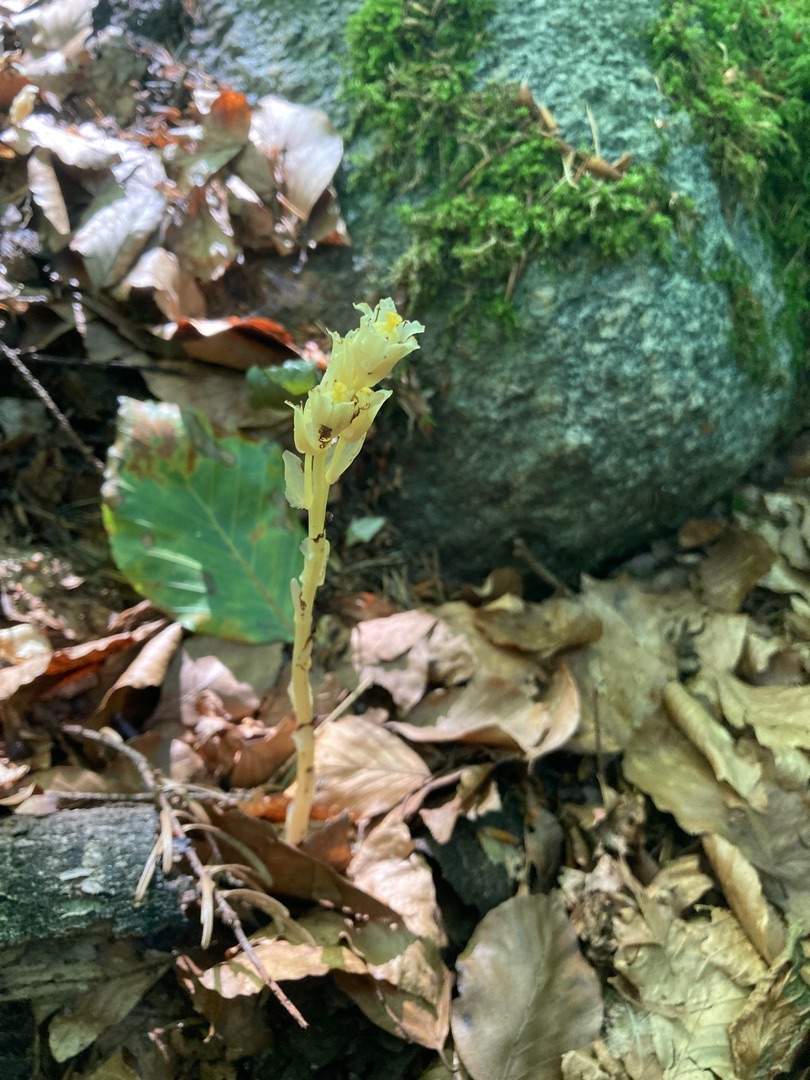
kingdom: Plantae
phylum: Tracheophyta
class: Magnoliopsida
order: Ericales
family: Ericaceae
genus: Hypopitys
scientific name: Hypopitys monotropa
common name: Snylterod
